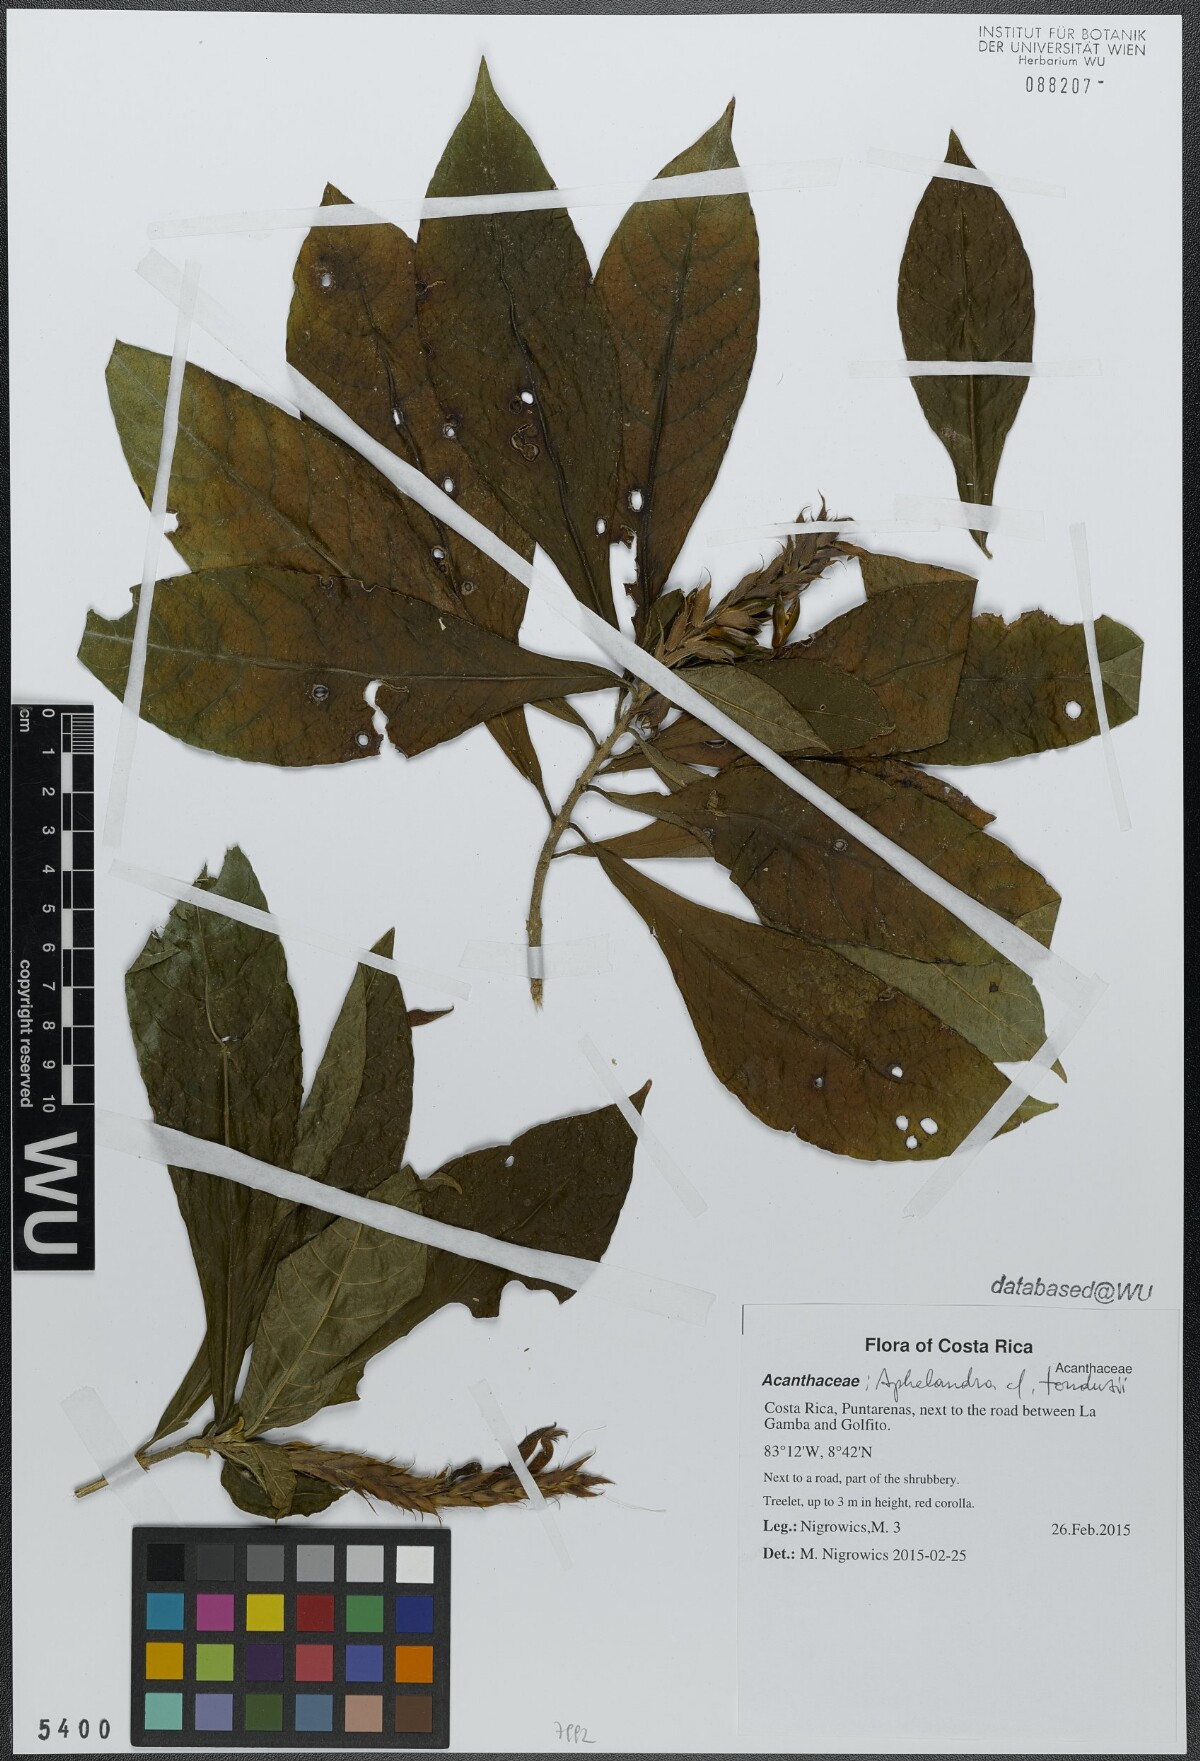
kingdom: Plantae
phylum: Tracheophyta
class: Magnoliopsida
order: Lamiales
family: Acanthaceae
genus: Aphelandra
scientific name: Aphelandra scabra
